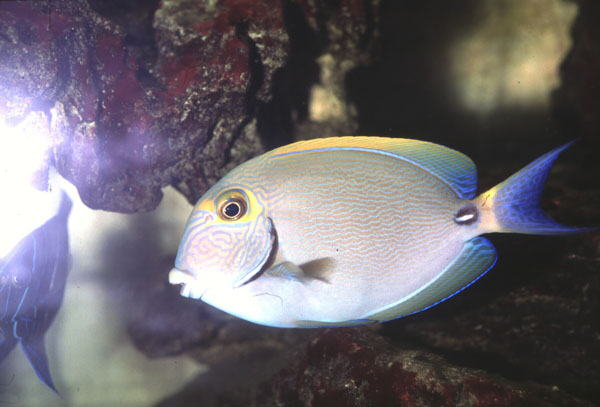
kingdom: Animalia
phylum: Chordata
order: Perciformes
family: Acanthuridae
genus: Acanthurus
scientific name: Acanthurus dussumieri
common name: Dussumier's surgeonfish
